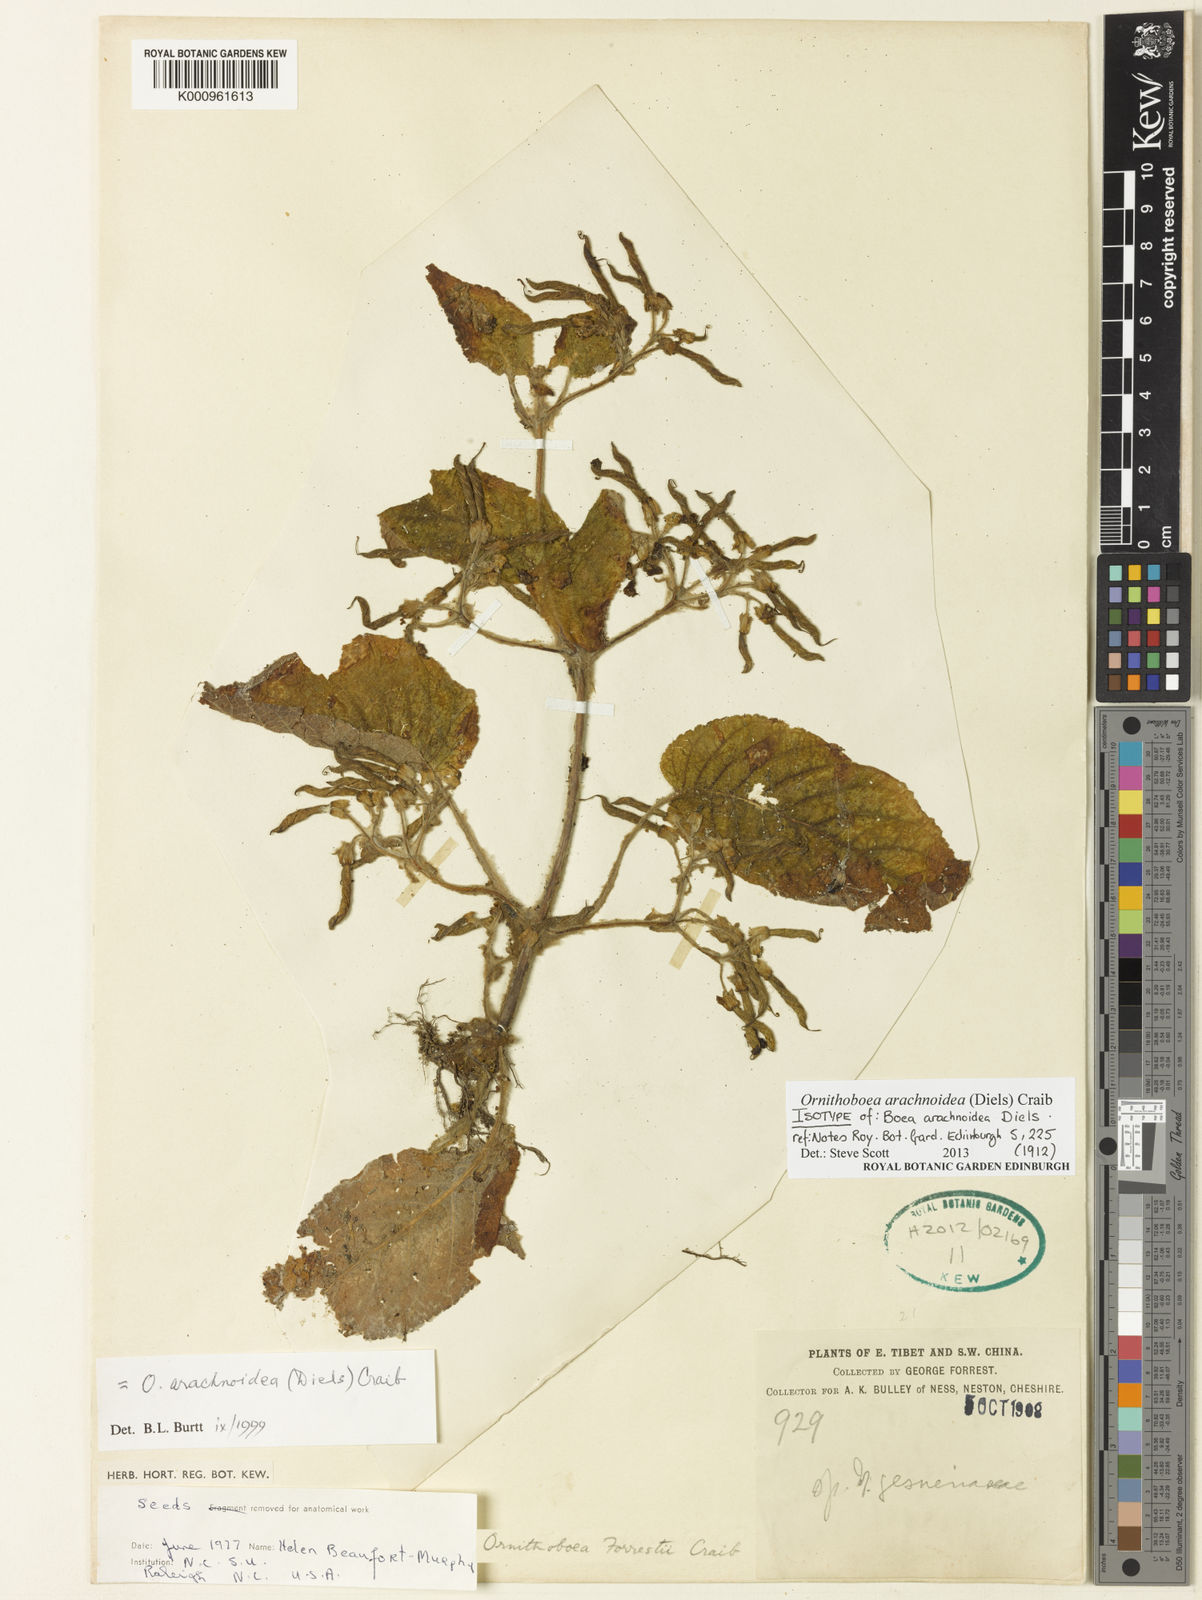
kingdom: Plantae
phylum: Tracheophyta
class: Magnoliopsida
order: Lamiales
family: Gesneriaceae
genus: Ornithoboea
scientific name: Ornithoboea arachnoidea
